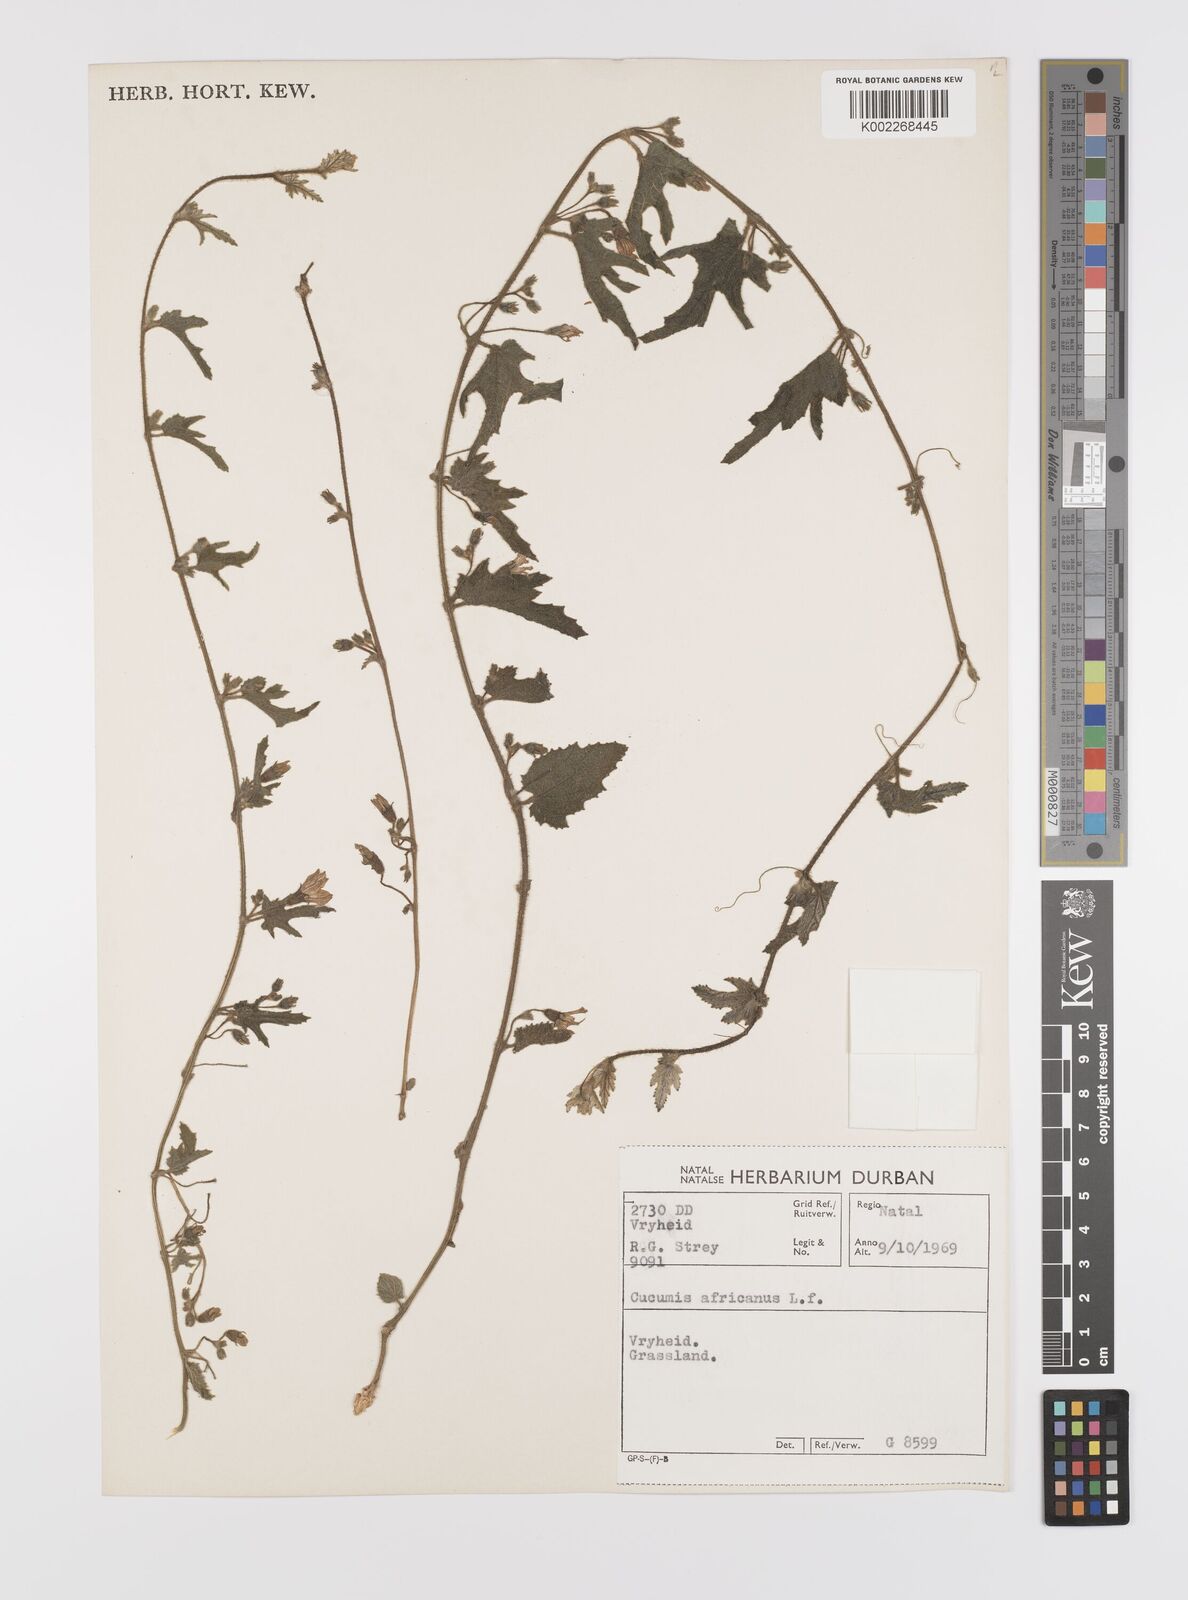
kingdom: Plantae
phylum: Tracheophyta
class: Magnoliopsida
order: Cucurbitales
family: Cucurbitaceae
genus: Cucumis
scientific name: Cucumis hirsutus
